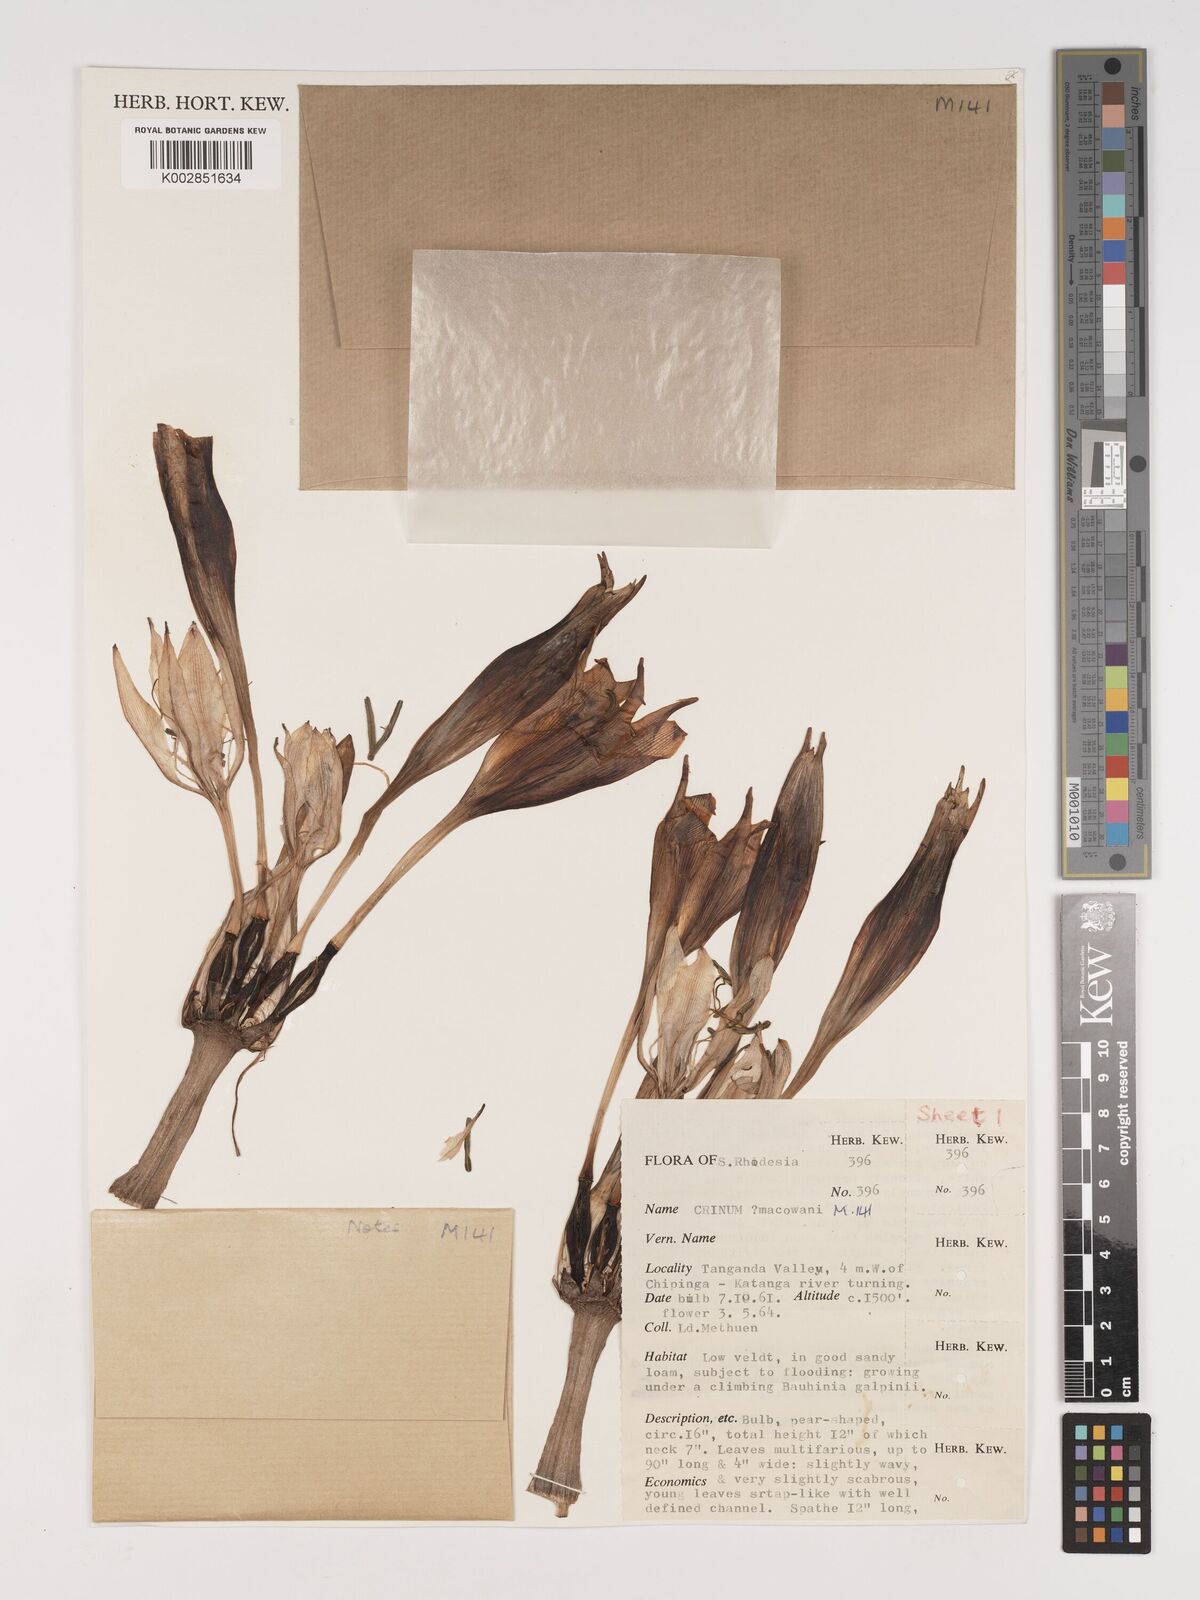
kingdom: Plantae
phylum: Tracheophyta
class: Liliopsida
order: Asparagales
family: Amaryllidaceae
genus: Crinum
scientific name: Crinum macowanii
